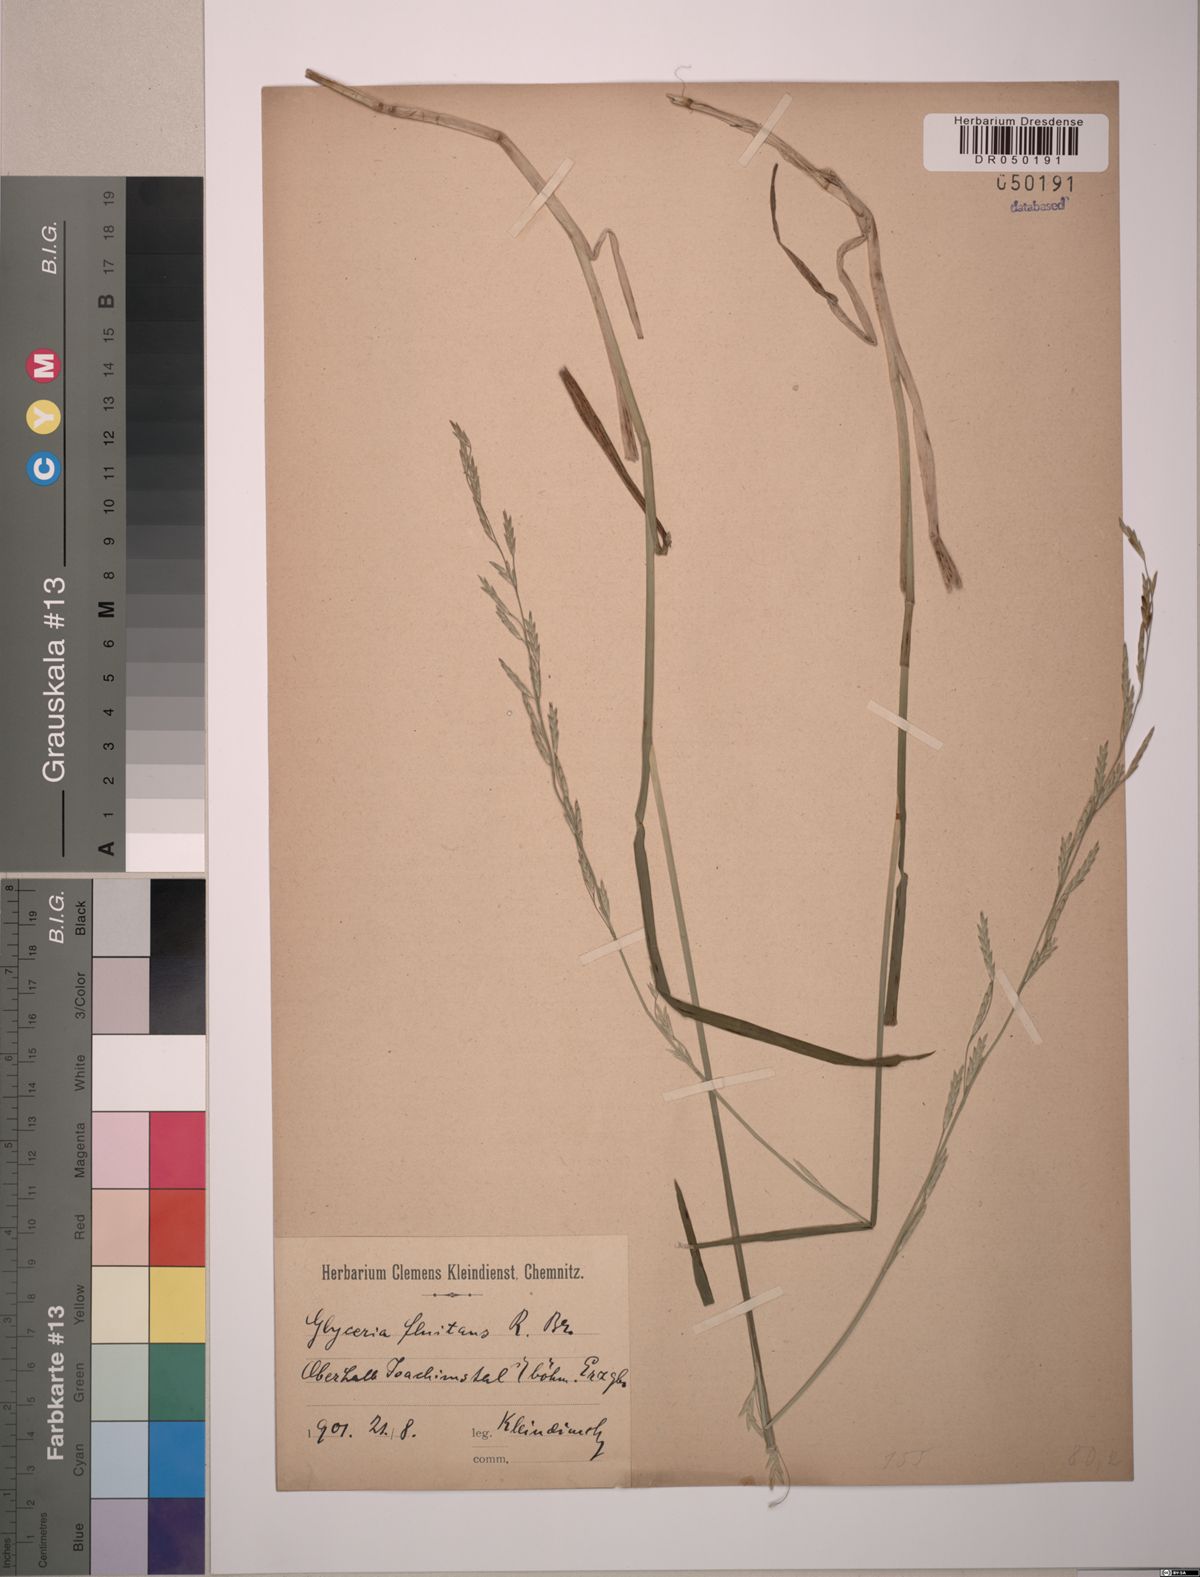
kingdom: Plantae
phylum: Tracheophyta
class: Liliopsida
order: Poales
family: Poaceae
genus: Glyceria
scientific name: Glyceria fluitans
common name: Floating sweet-grass
